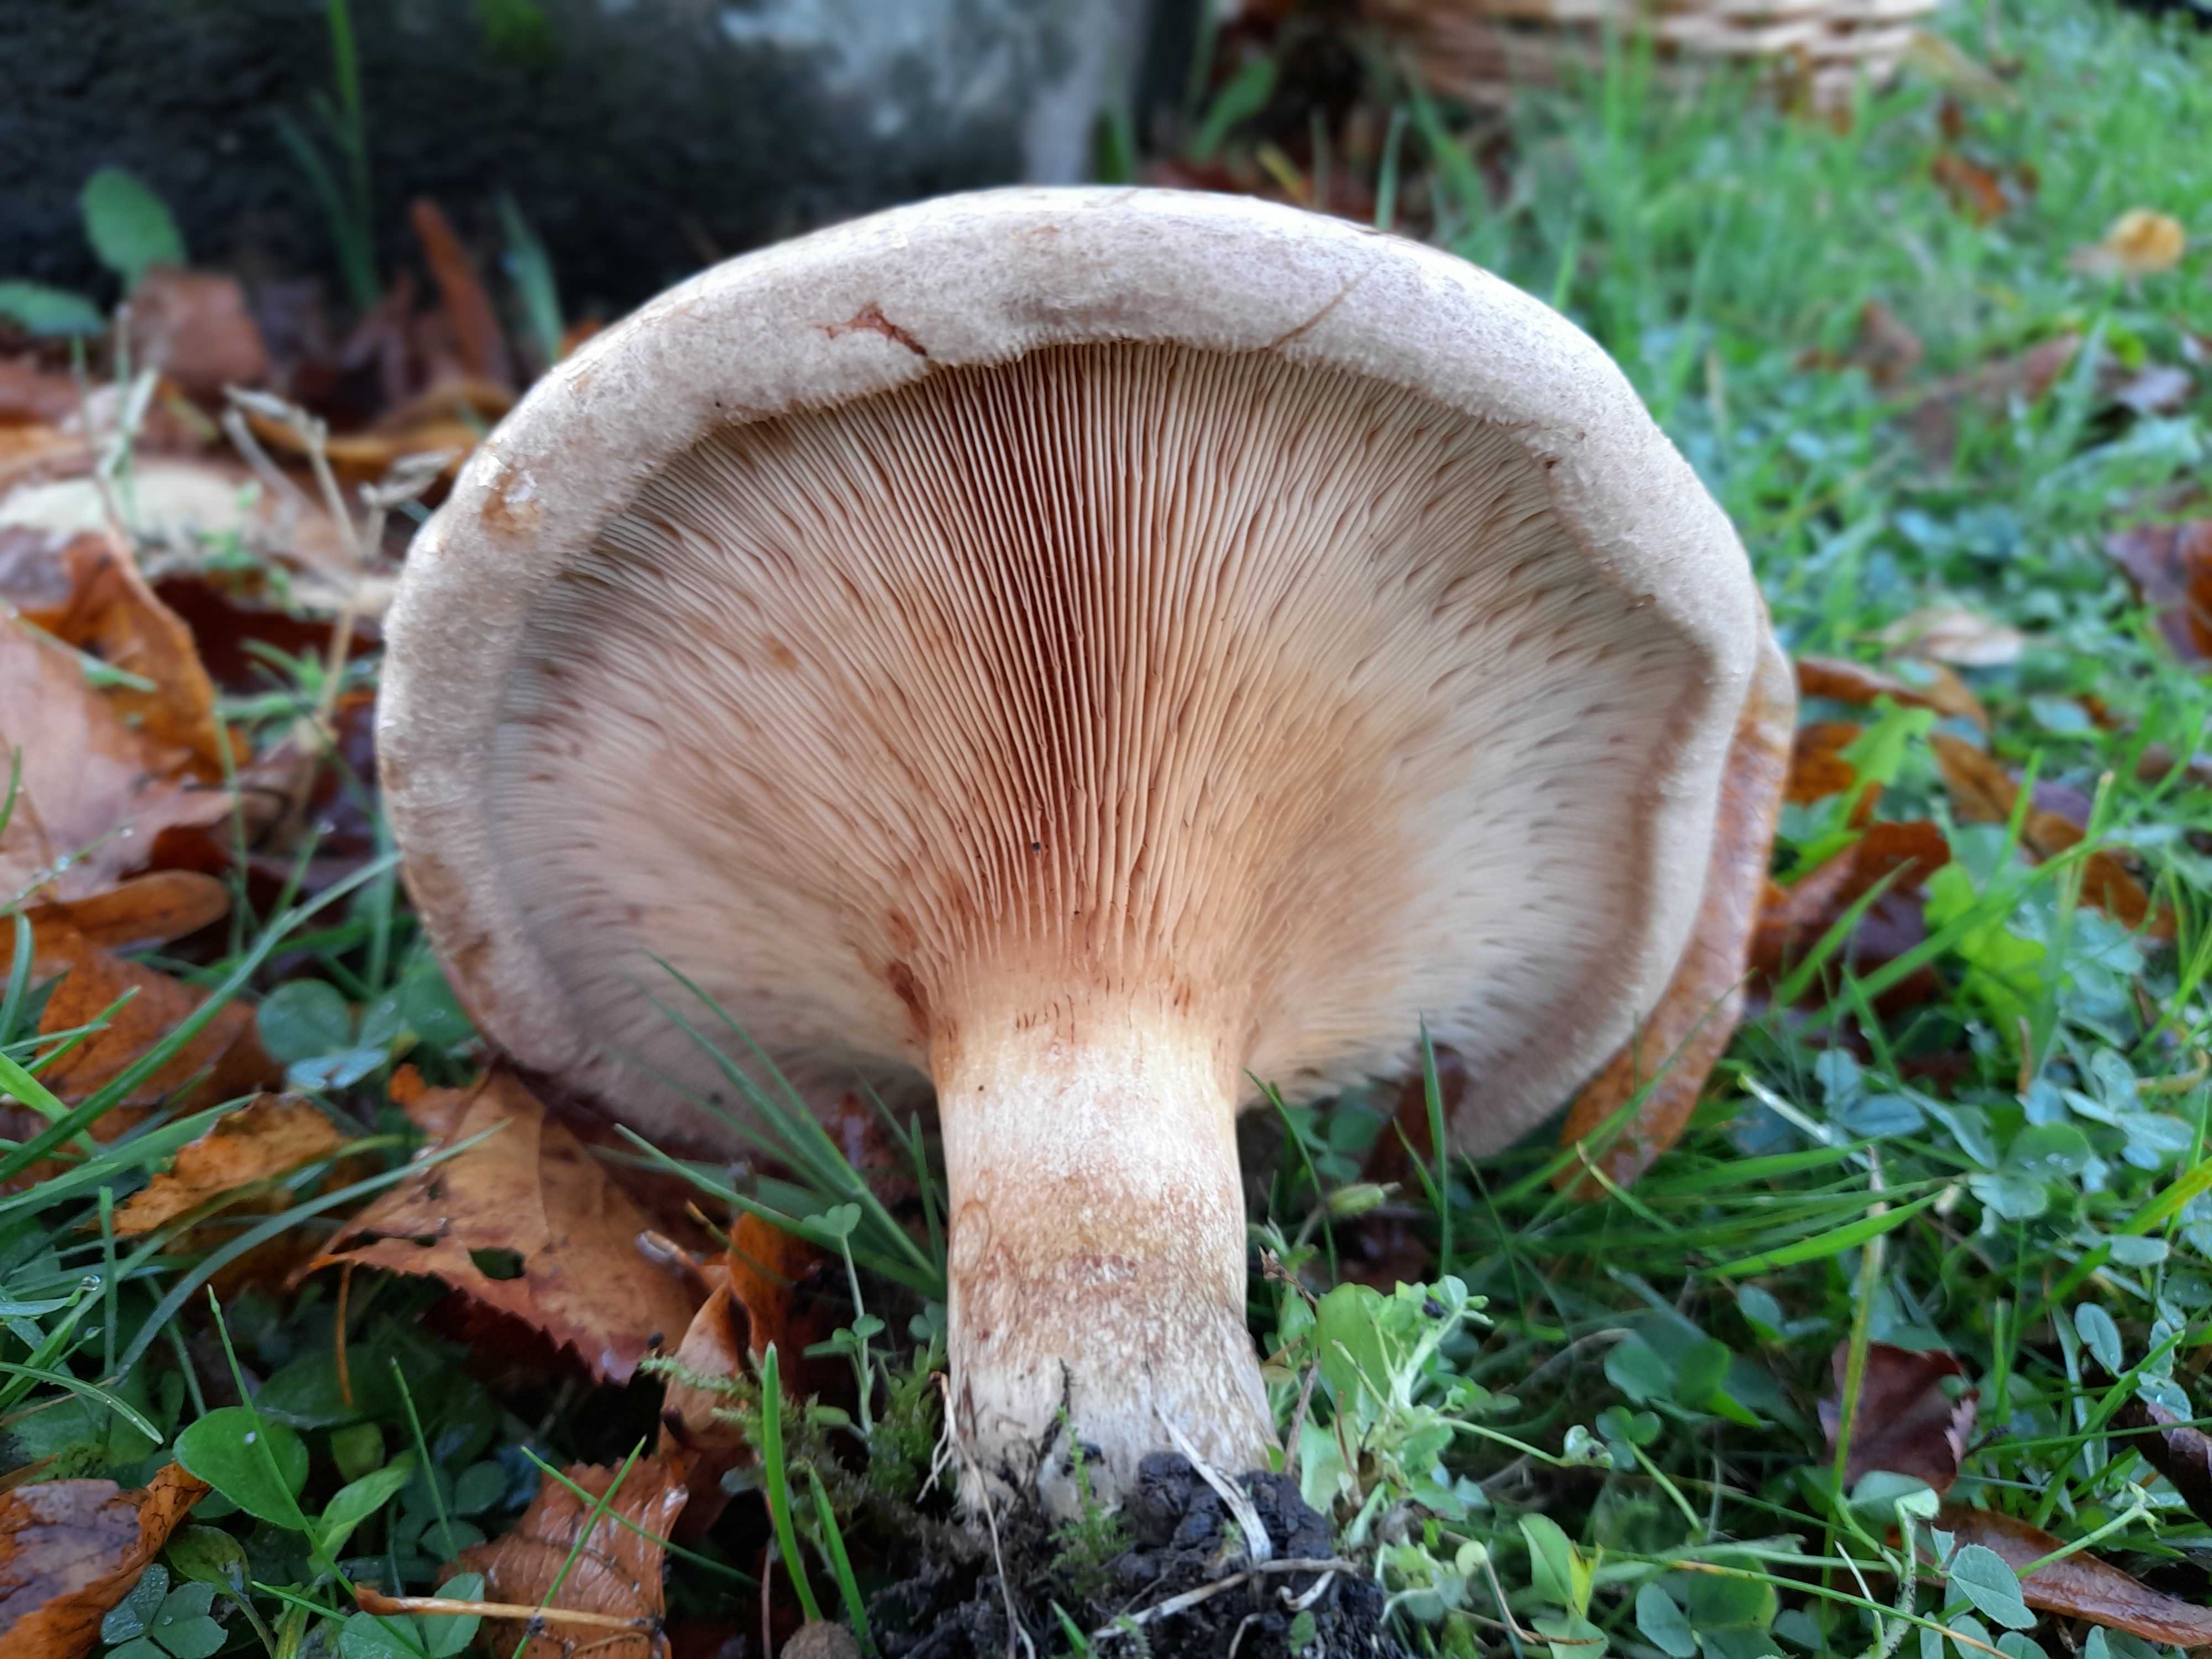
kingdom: Fungi
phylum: Basidiomycota
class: Agaricomycetes
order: Boletales
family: Paxillaceae
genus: Paxillus
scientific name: Paxillus involutus
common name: almindelig netbladhat
